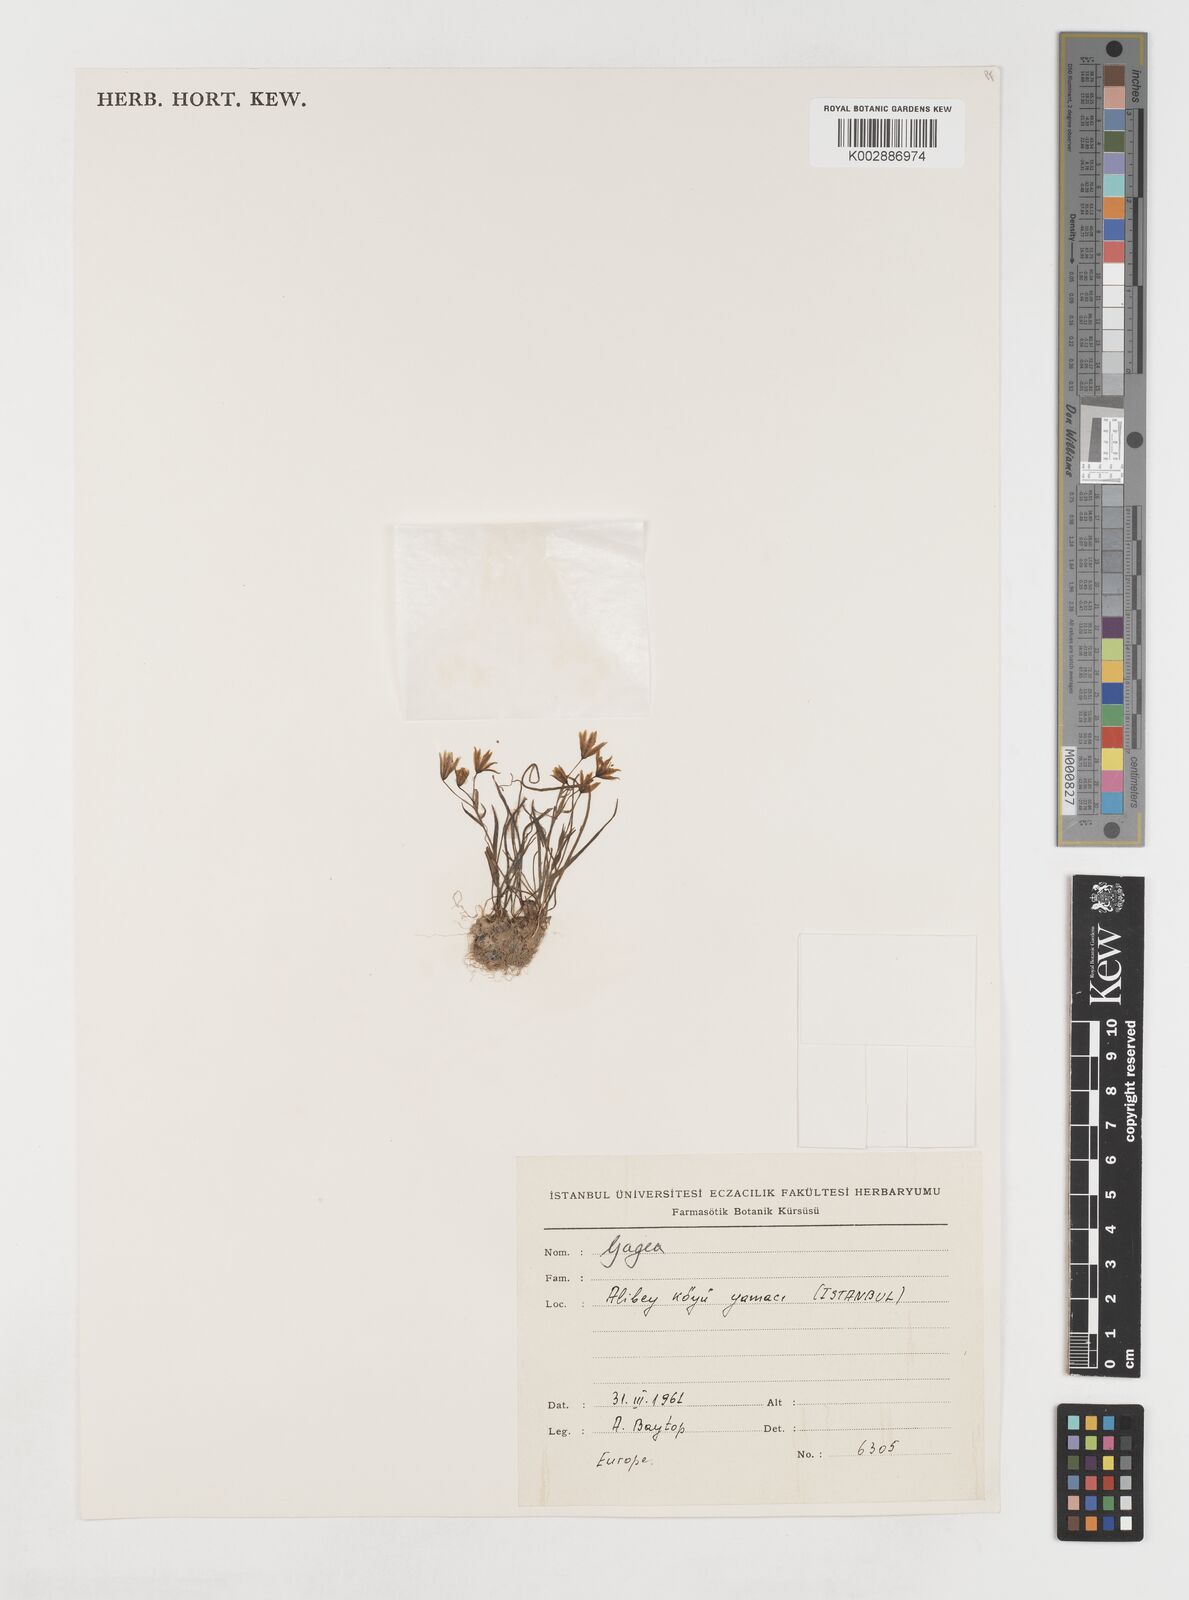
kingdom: Plantae
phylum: Tracheophyta
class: Liliopsida
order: Liliales
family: Liliaceae
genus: Gagea
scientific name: Gagea amblyopetala
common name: Blunt-flowered gagea
